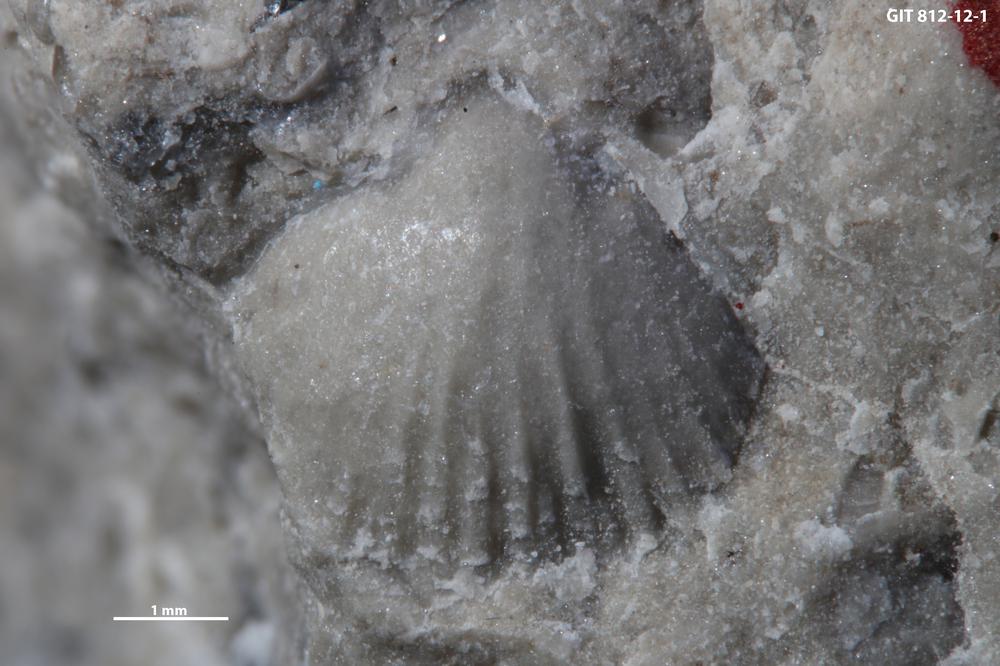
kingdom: Animalia
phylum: Brachiopoda
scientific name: Brachiopoda
